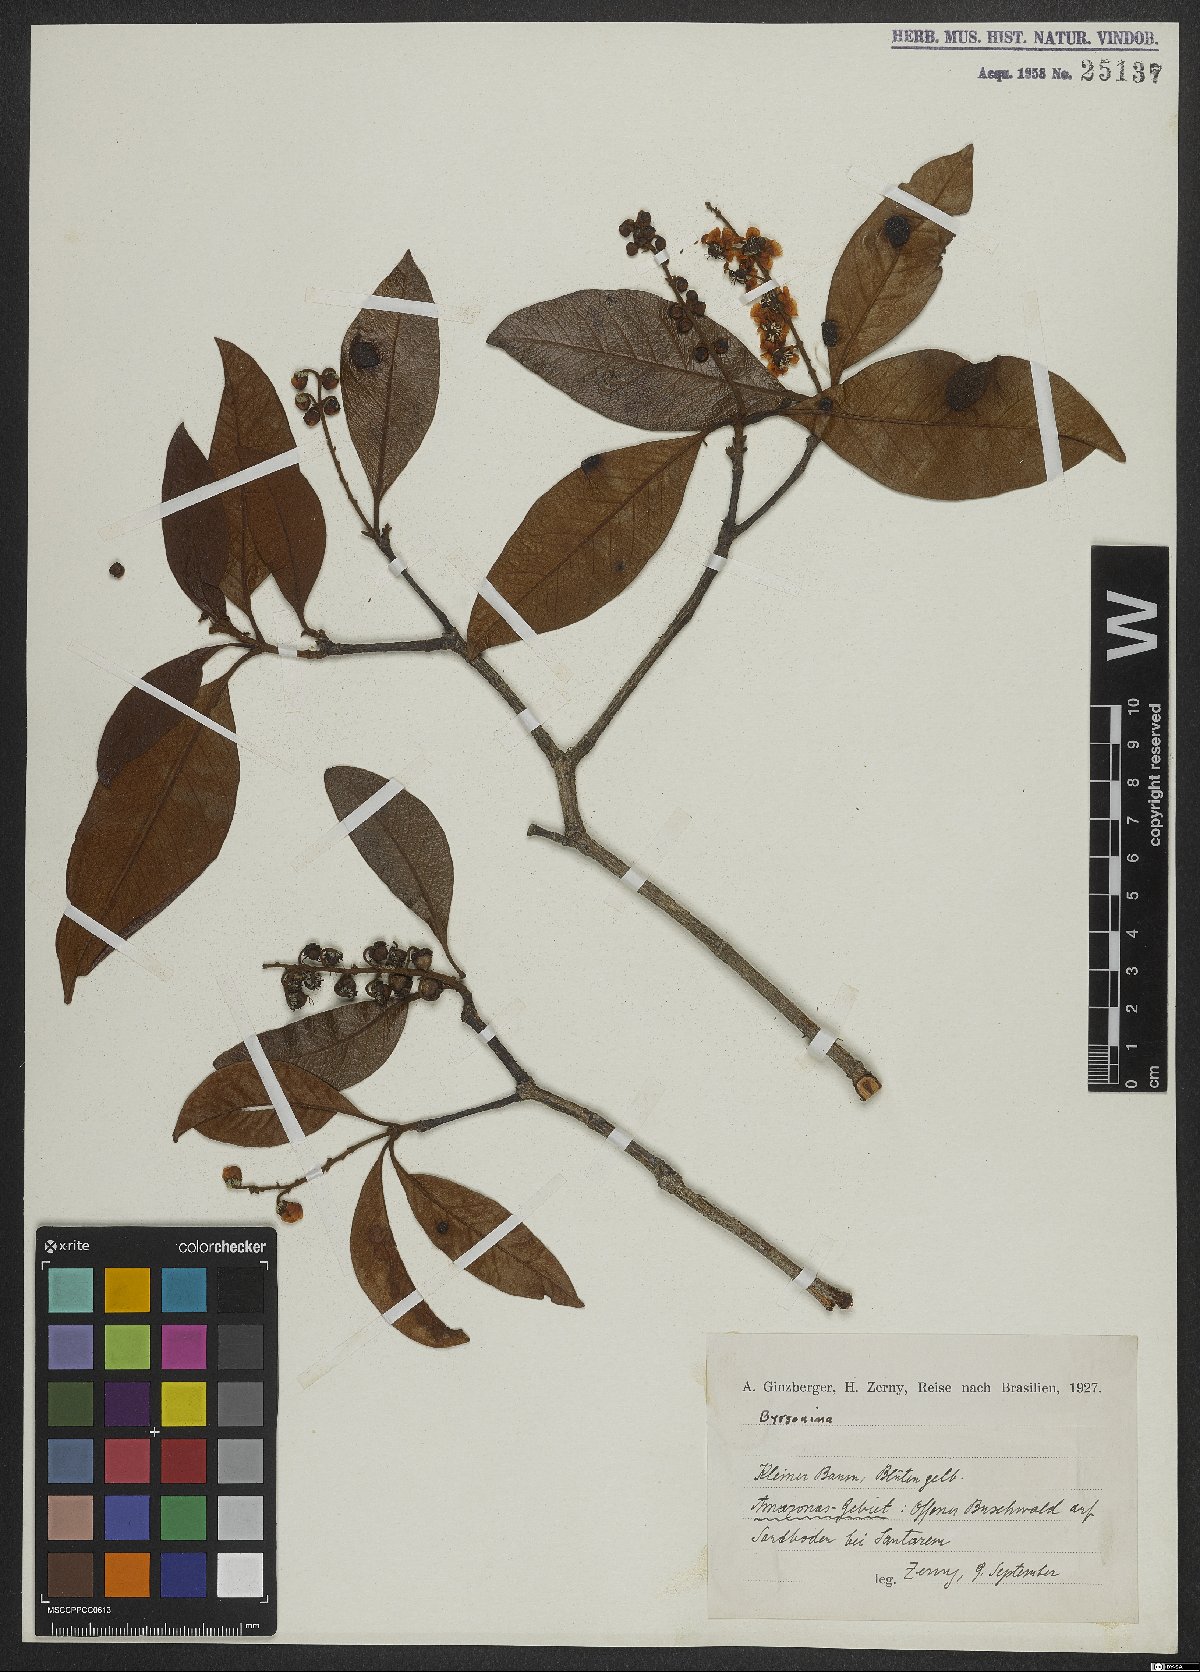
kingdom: Plantae
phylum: Tracheophyta
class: Magnoliopsida
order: Malpighiales
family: Malpighiaceae
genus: Byrsonima
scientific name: Byrsonima
